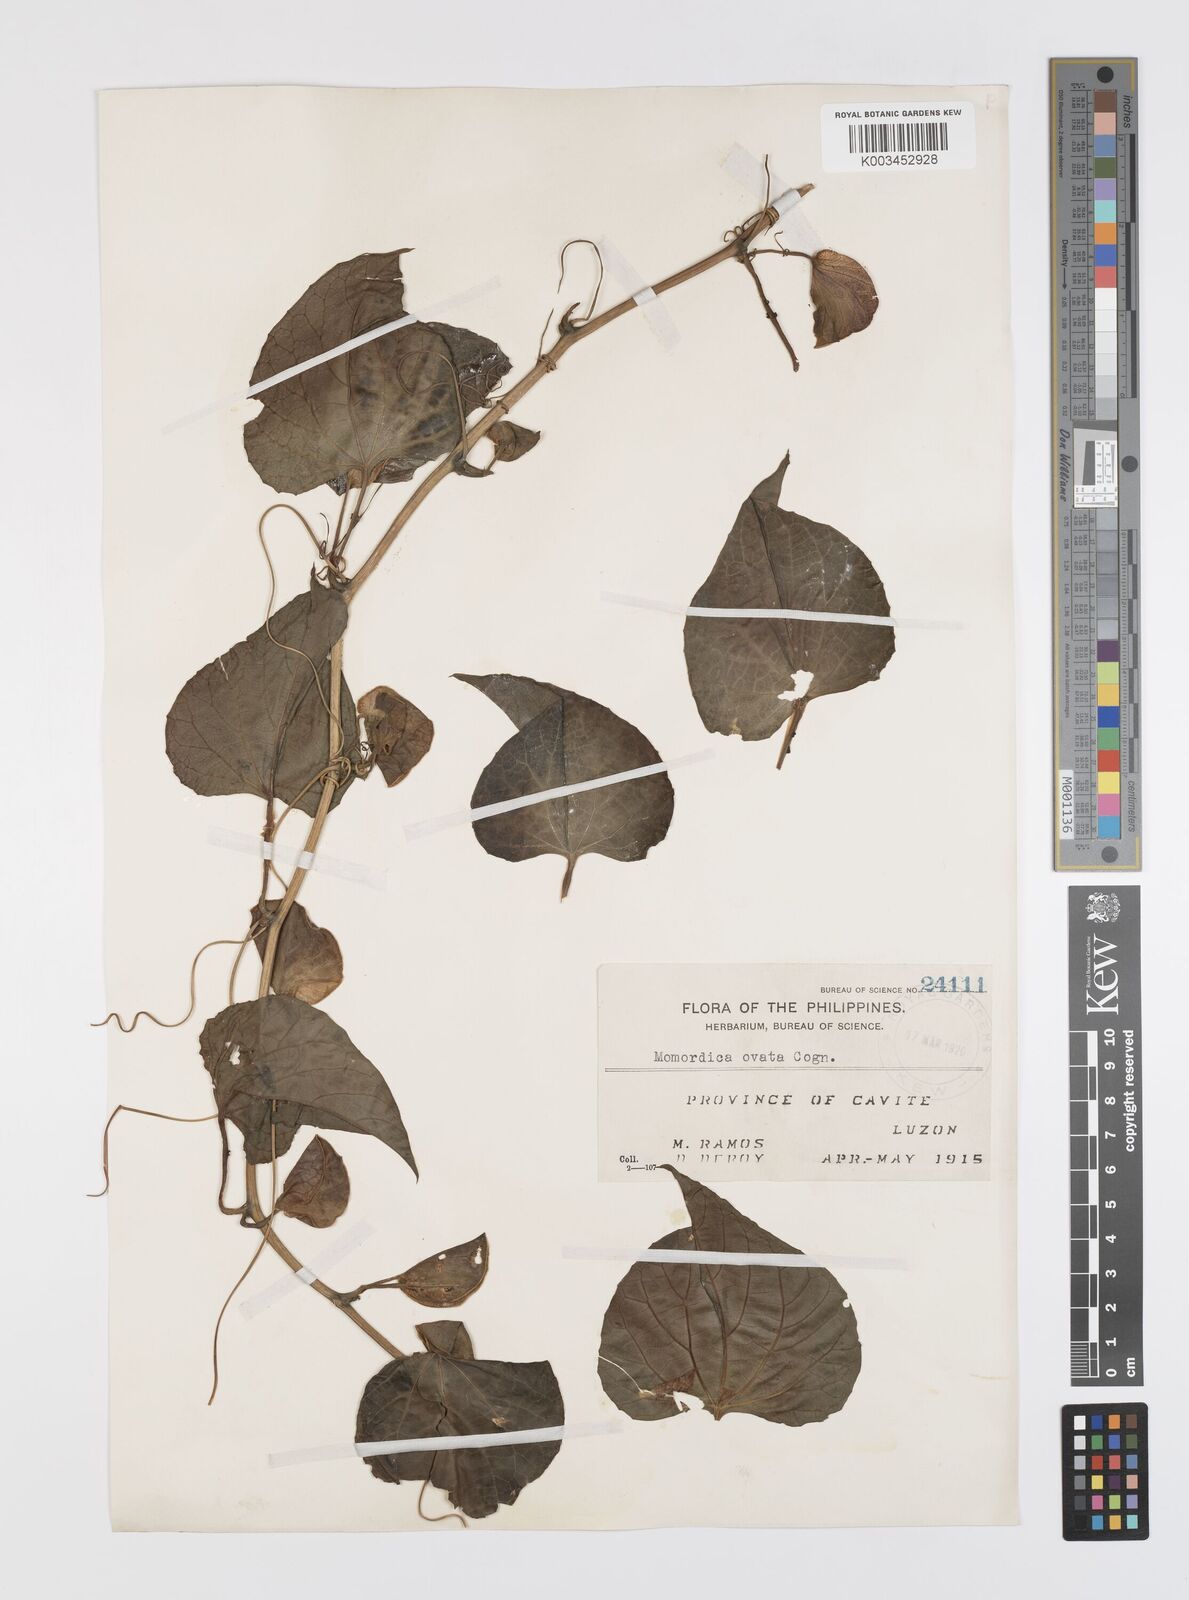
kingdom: Plantae
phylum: Tracheophyta
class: Magnoliopsida
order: Cucurbitales
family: Cucurbitaceae
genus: Momordica
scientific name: Momordica cochinchinensis
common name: Chinese bitter-cucumber
